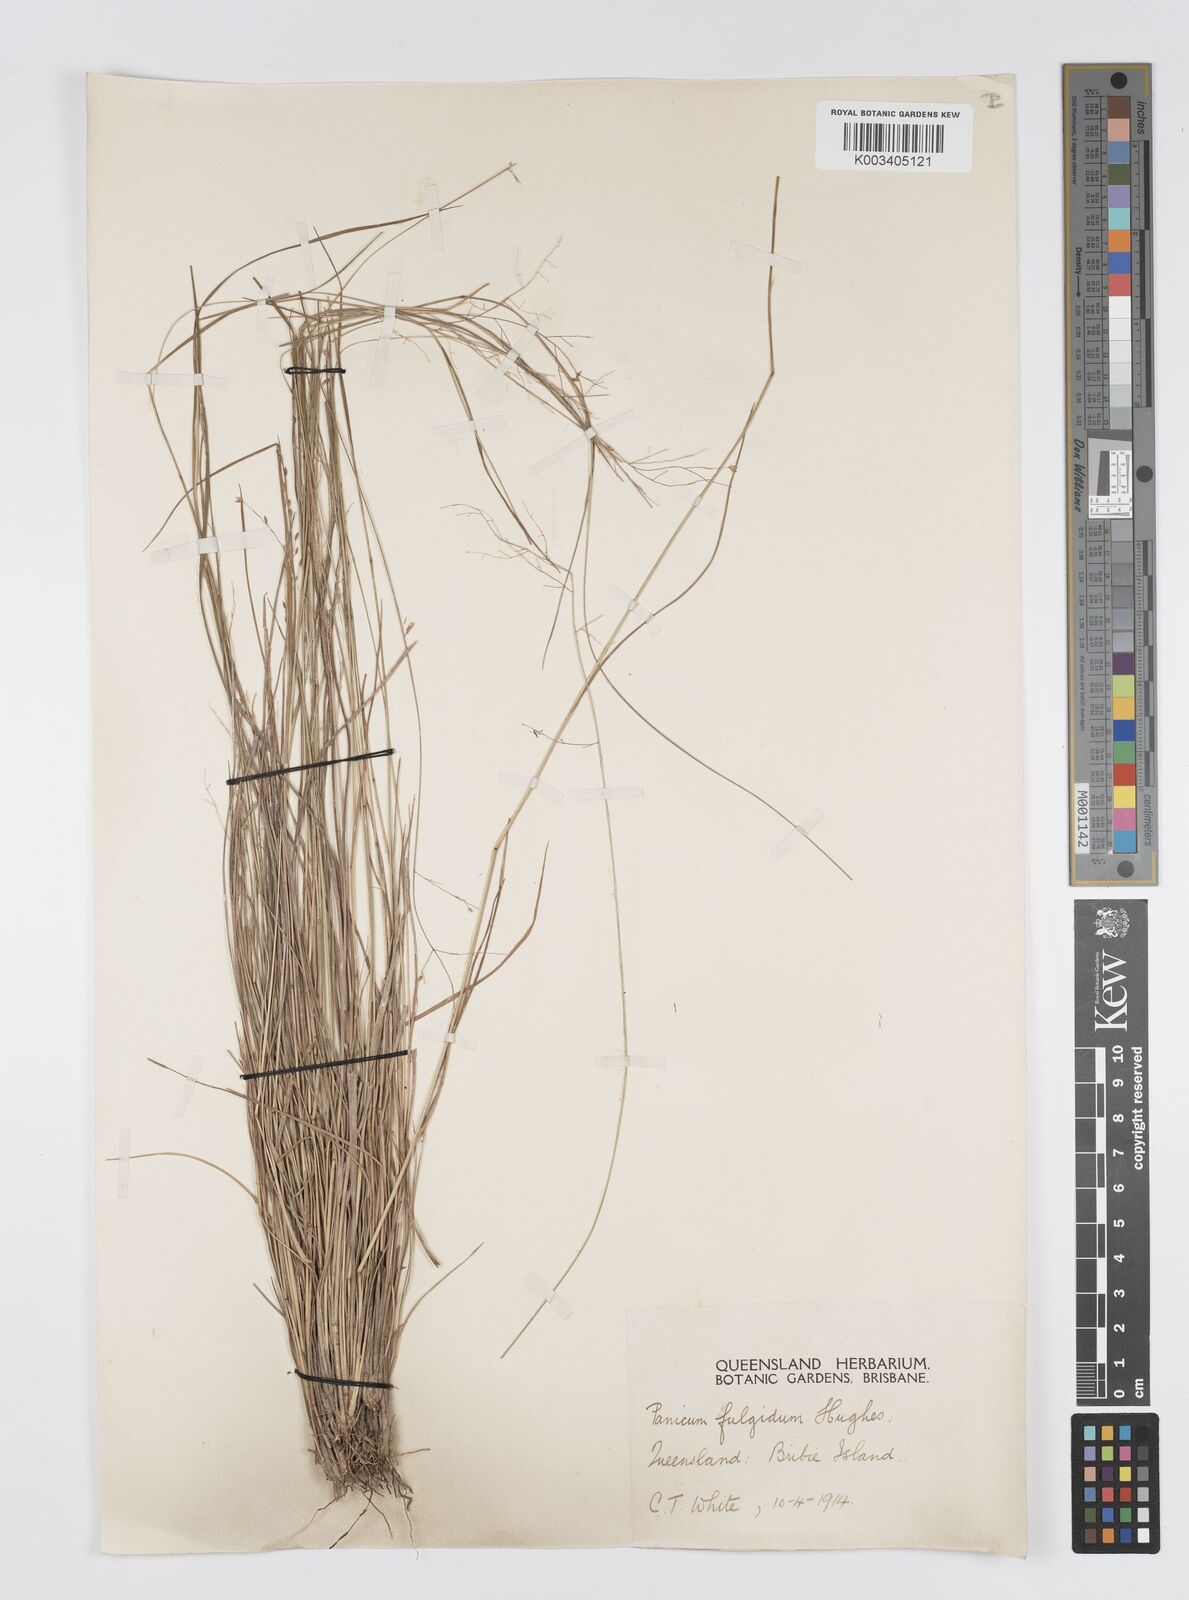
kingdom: Plantae
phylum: Tracheophyta
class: Liliopsida
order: Poales
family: Poaceae
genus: Panicum
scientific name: Panicum simile
